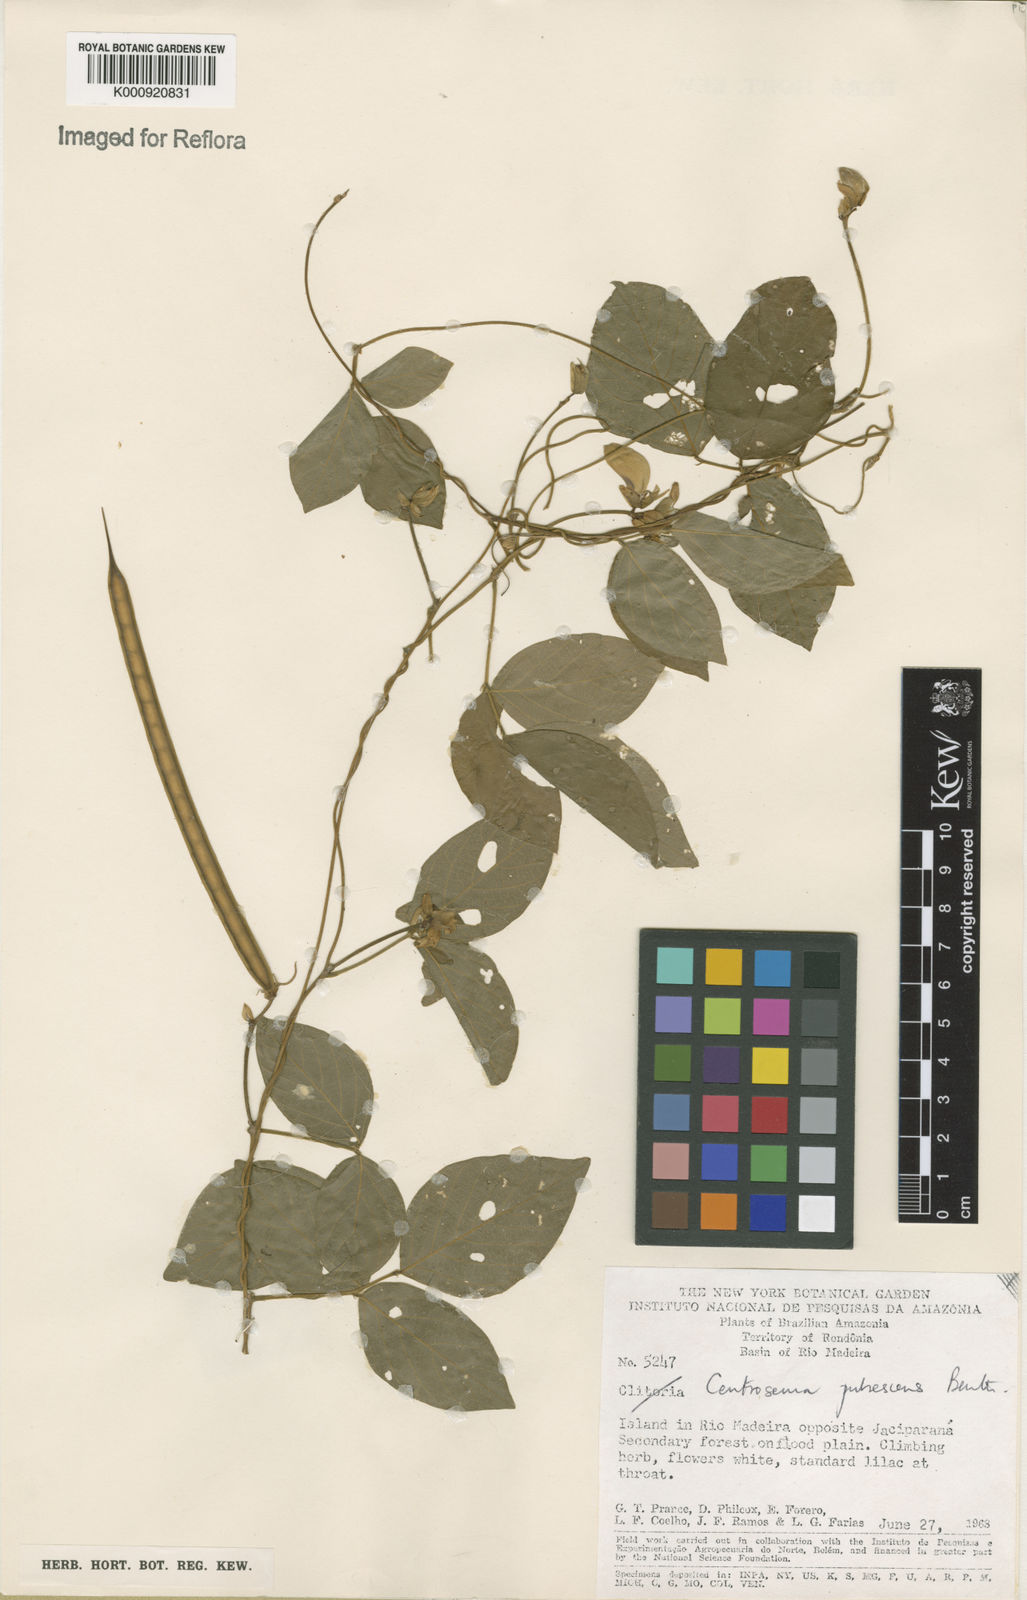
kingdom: Plantae
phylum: Tracheophyta
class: Magnoliopsida
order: Fabales
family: Fabaceae
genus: Centrosema
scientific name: Centrosema pubescens
